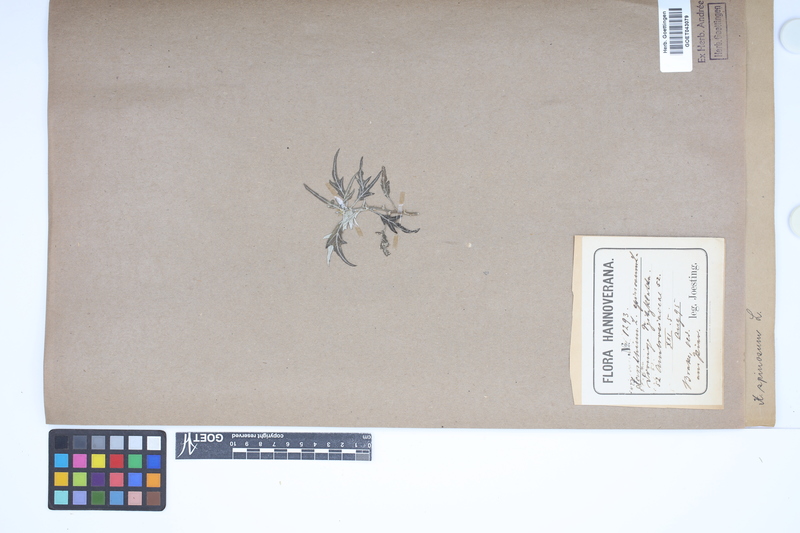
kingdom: Plantae
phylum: Tracheophyta
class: Magnoliopsida
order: Asterales
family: Asteraceae
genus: Xanthium
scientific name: Xanthium spinosum
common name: Spiny cocklebur
